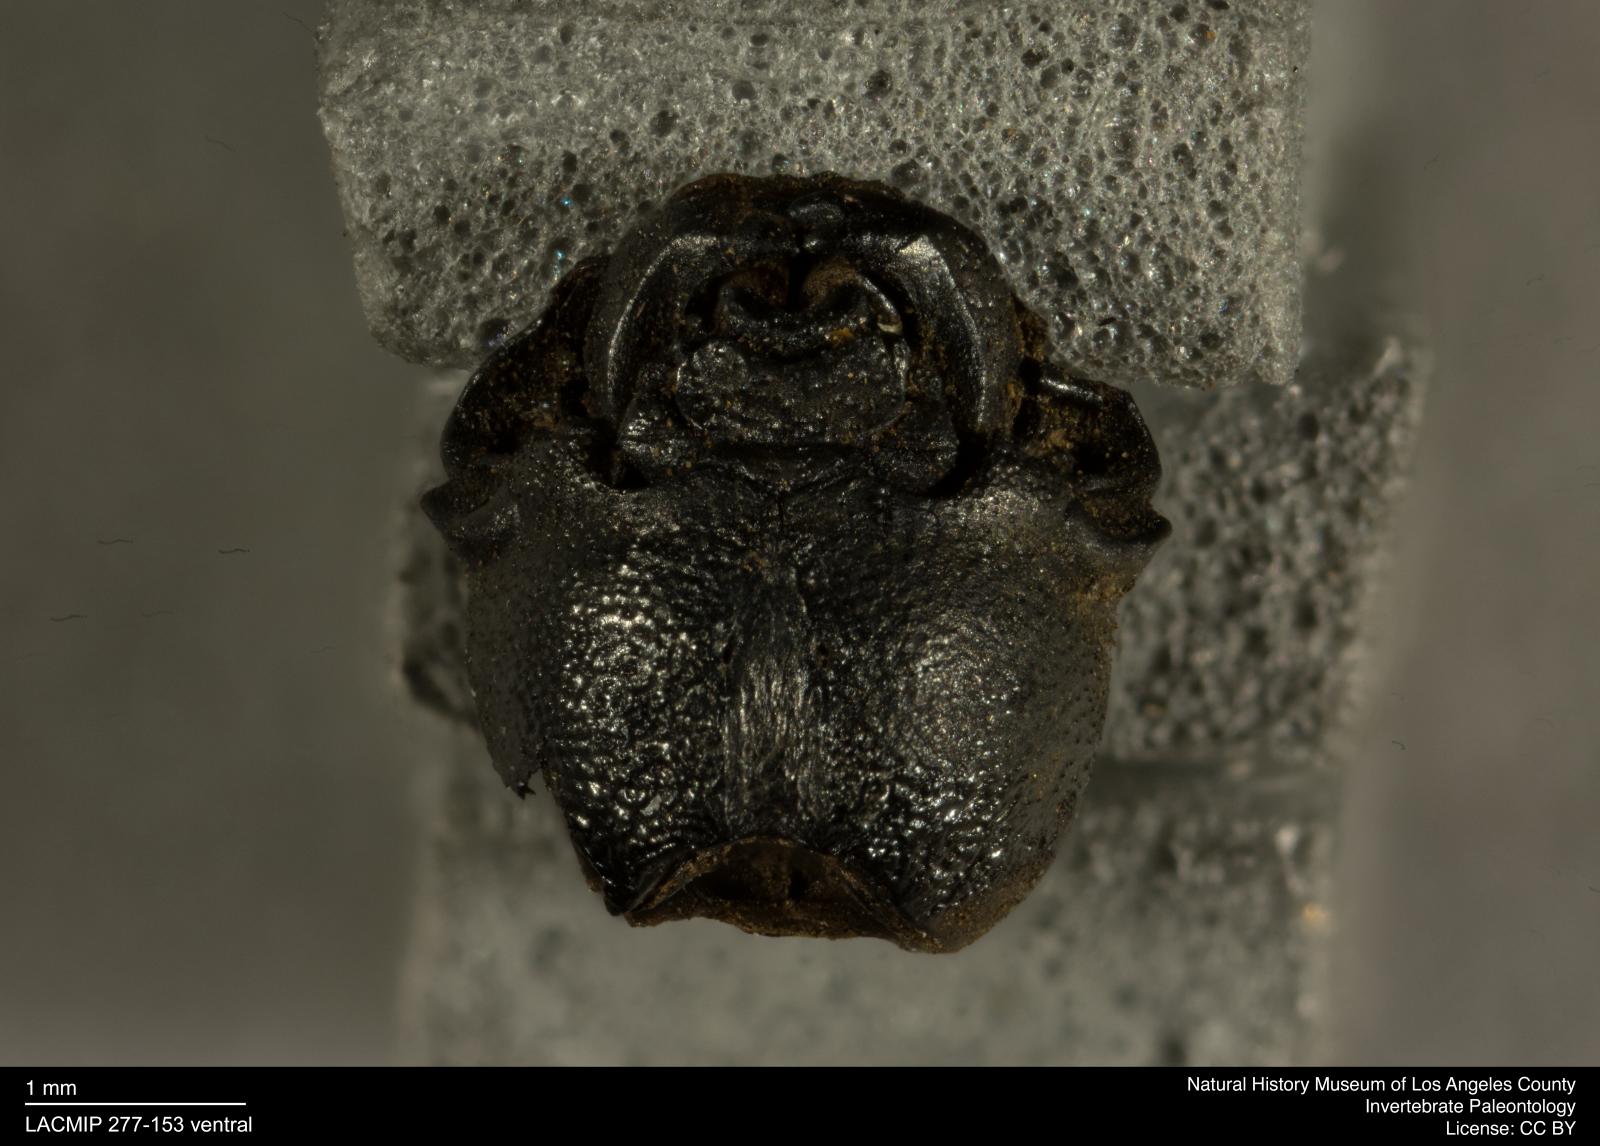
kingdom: Animalia
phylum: Arthropoda
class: Insecta
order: Coleoptera
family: Tenebrionidae
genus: Coniontis
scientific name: Coniontis abdominalis
